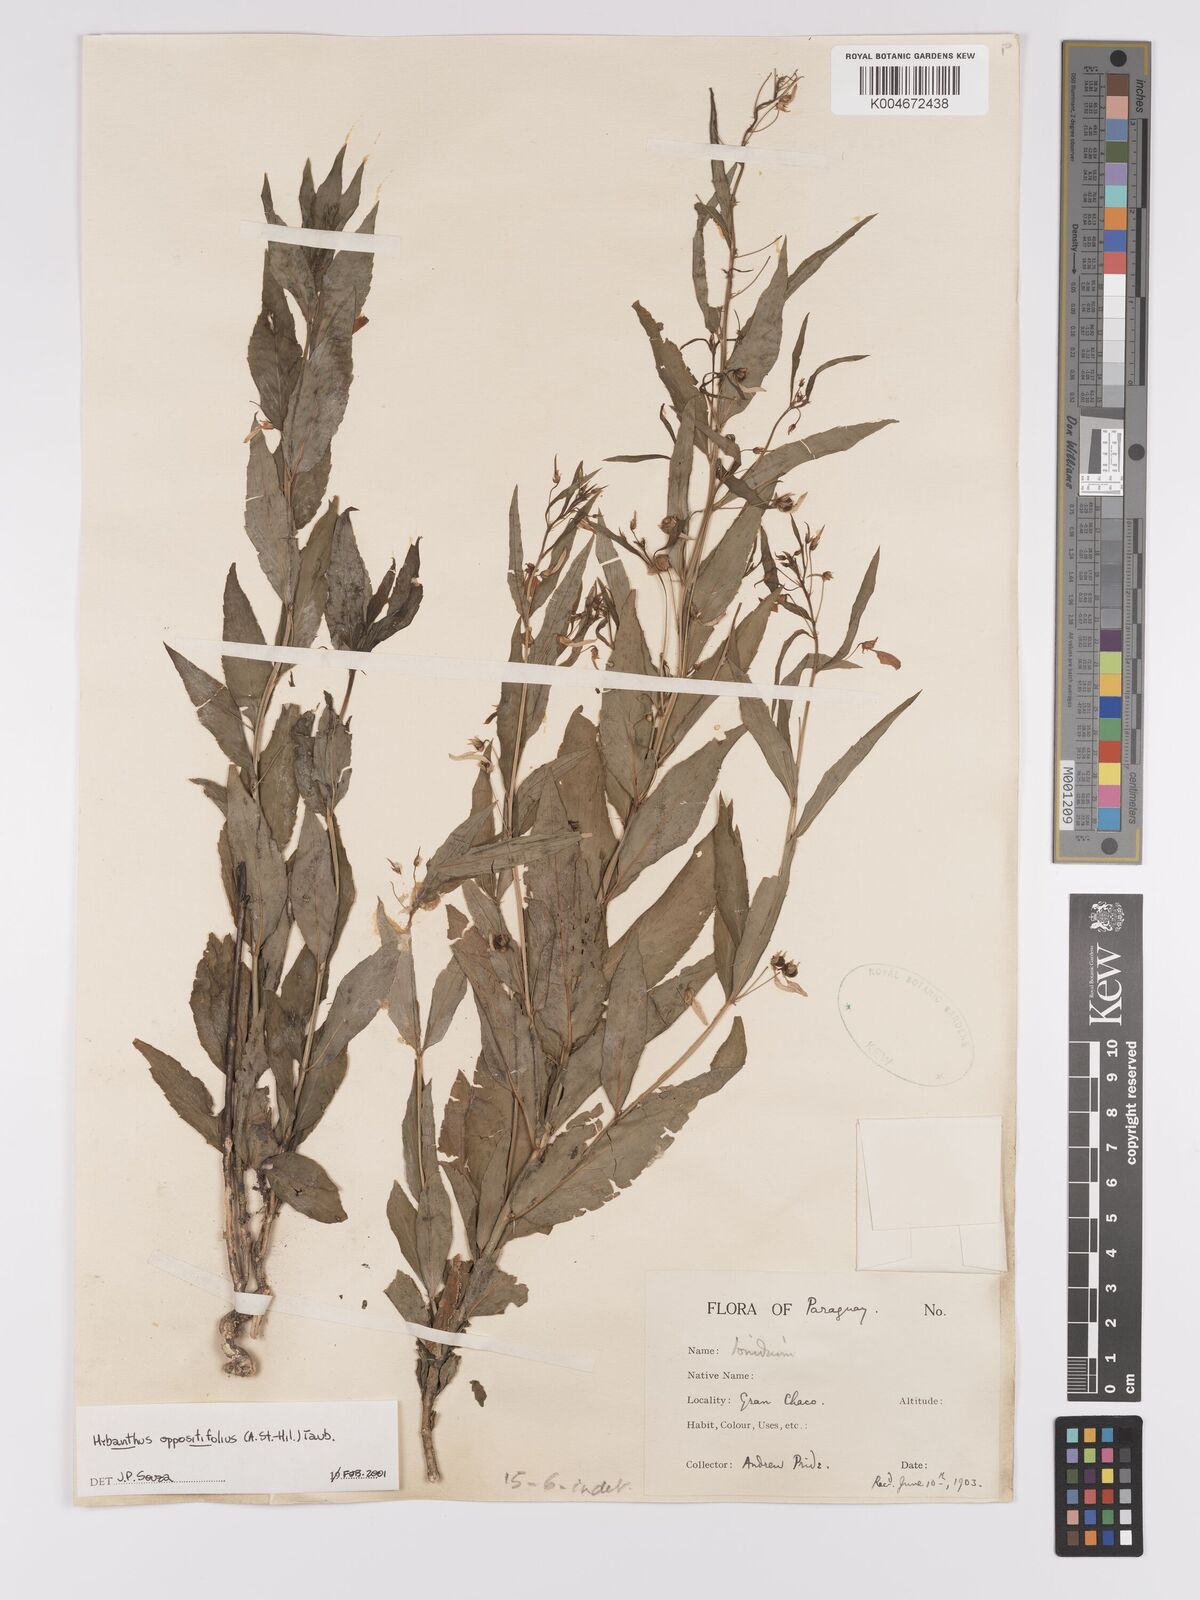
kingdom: Plantae
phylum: Tracheophyta
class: Magnoliopsida
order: Malpighiales
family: Violaceae
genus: Pombalia
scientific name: Pombalia oppositifolia
